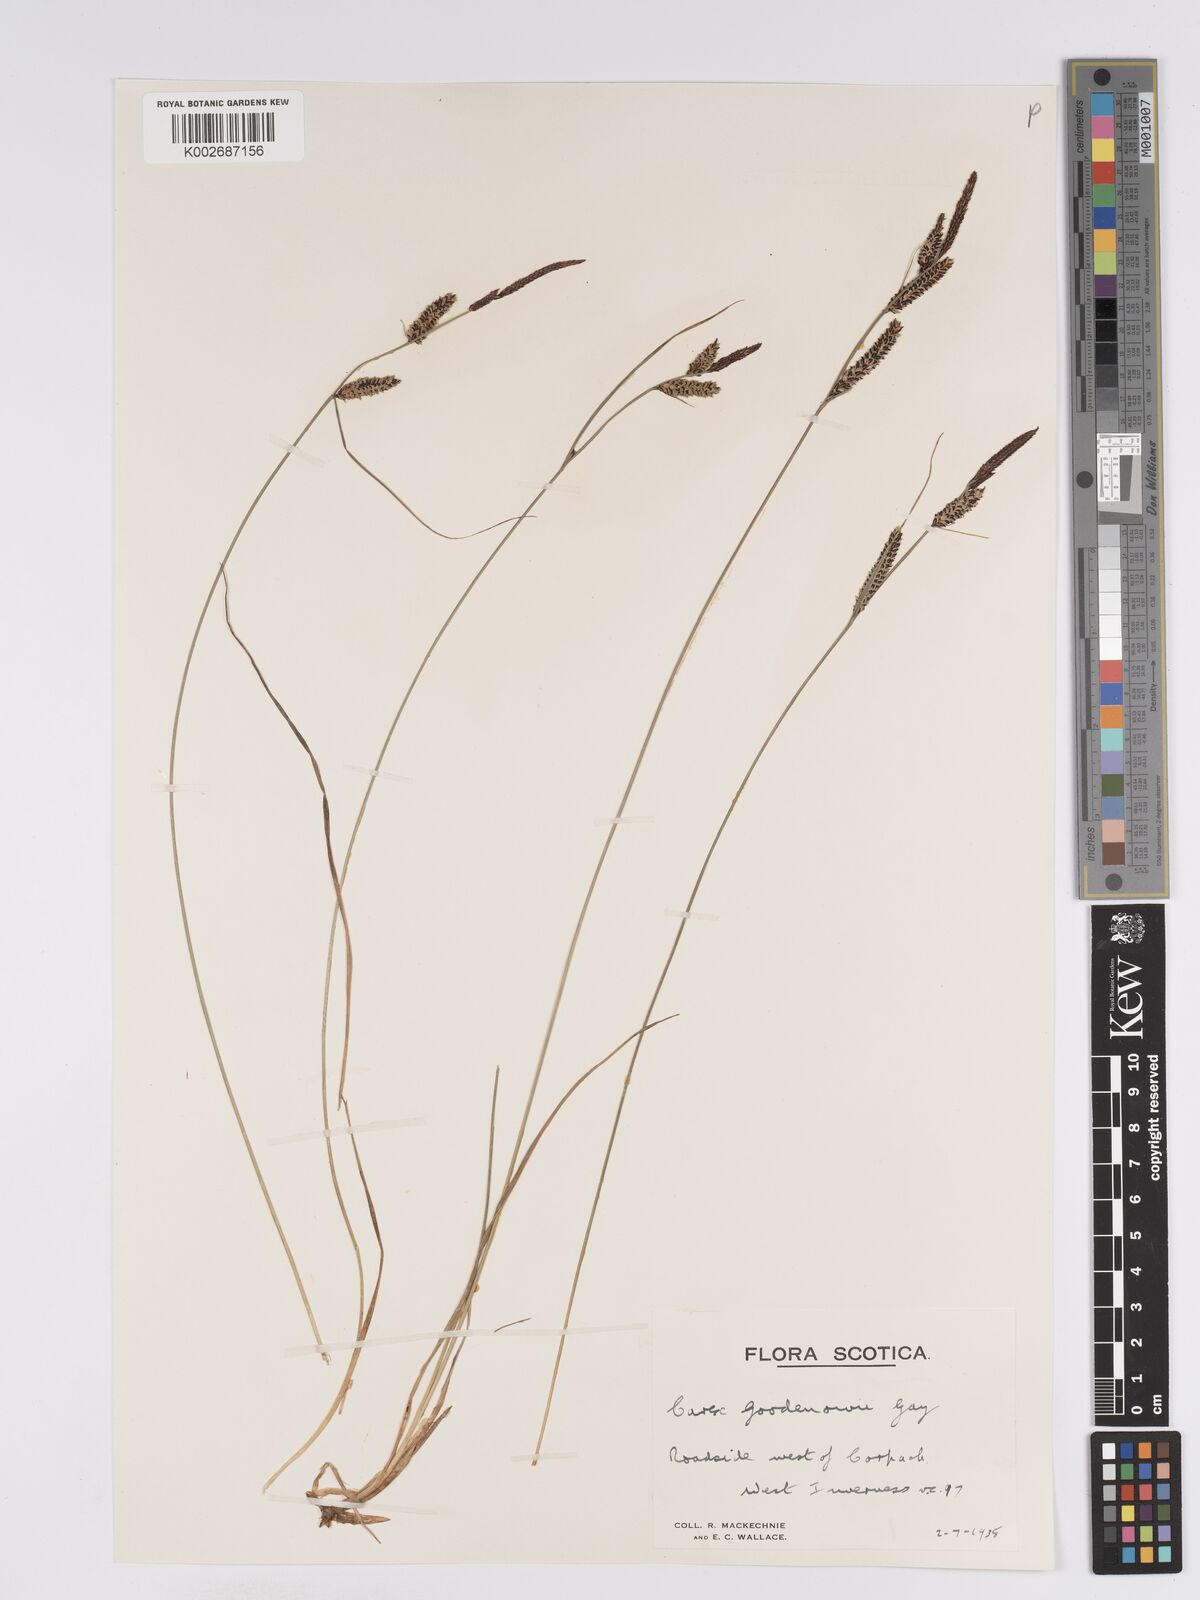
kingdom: Plantae
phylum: Tracheophyta
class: Liliopsida
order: Poales
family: Cyperaceae
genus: Carex
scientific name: Carex nigra
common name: Common sedge
